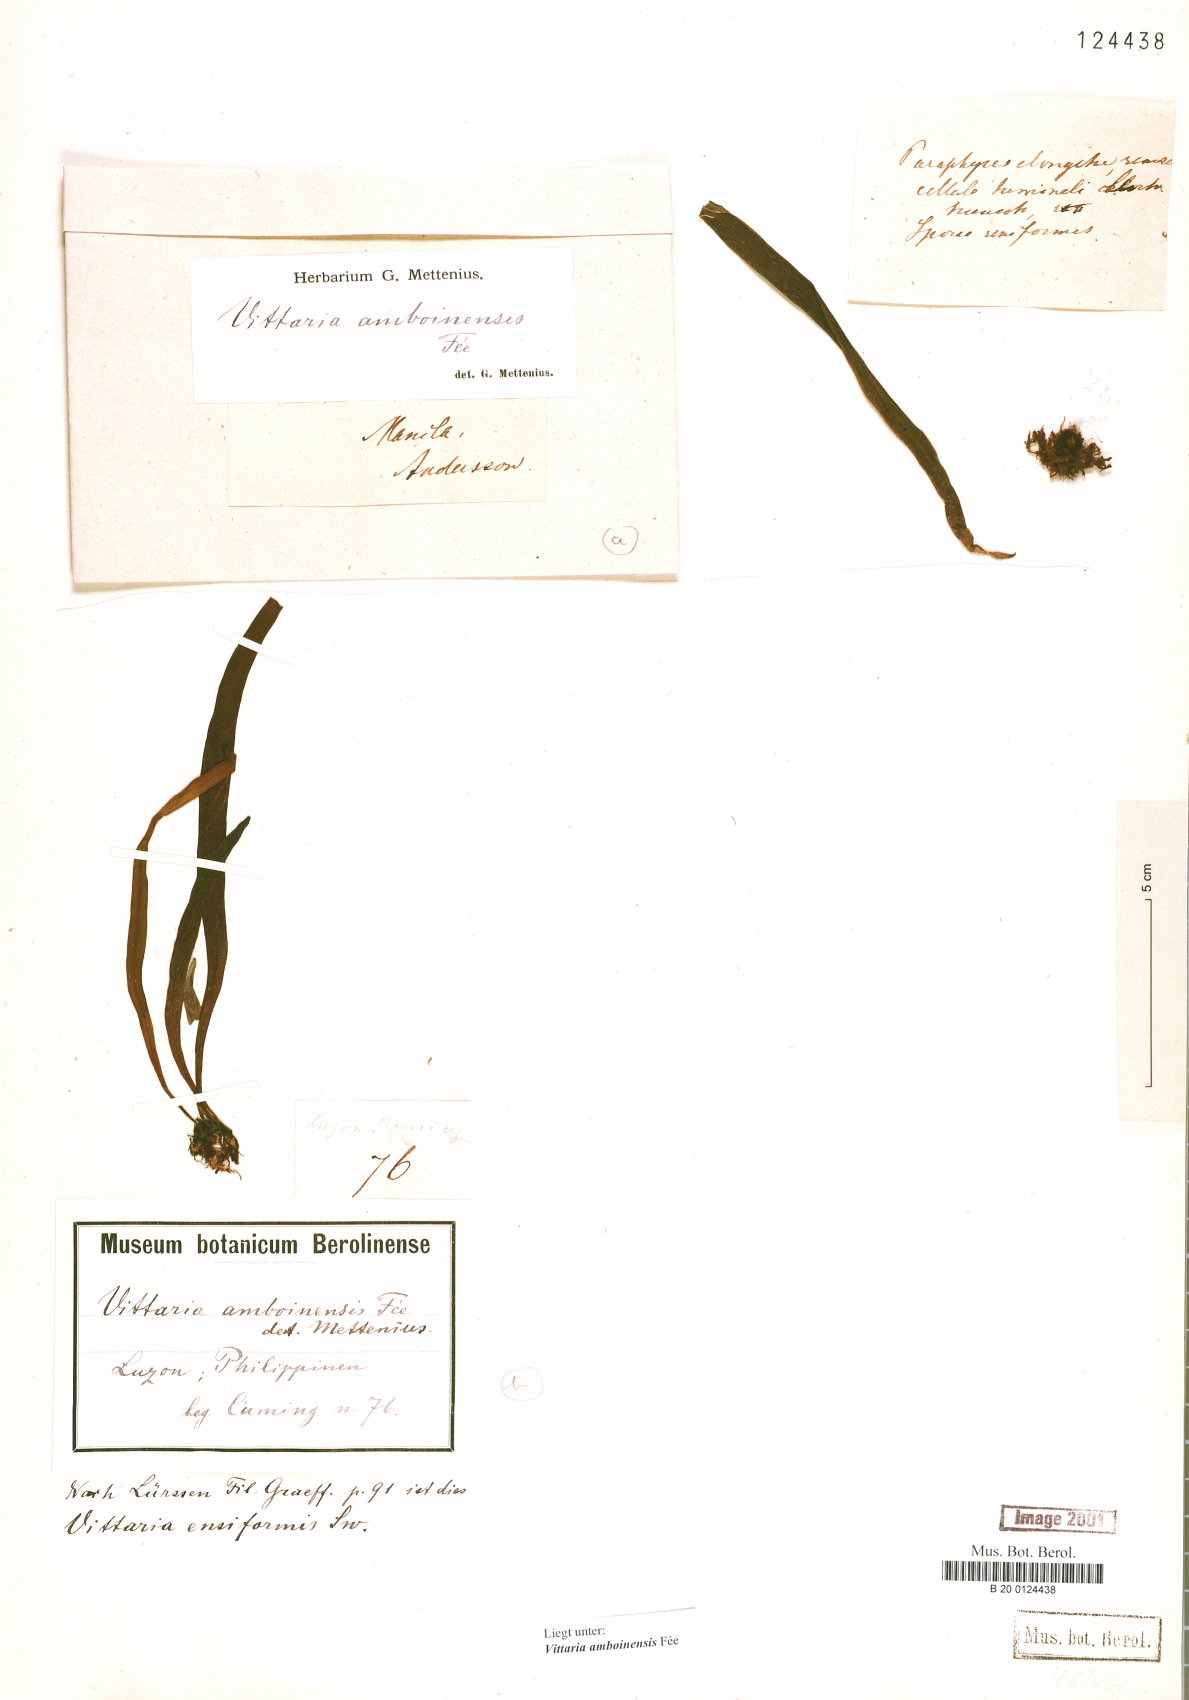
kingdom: Plantae
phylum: Tracheophyta
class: Polypodiopsida
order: Polypodiales
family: Pteridaceae
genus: Haplopteris
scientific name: Haplopteris amboinensis
